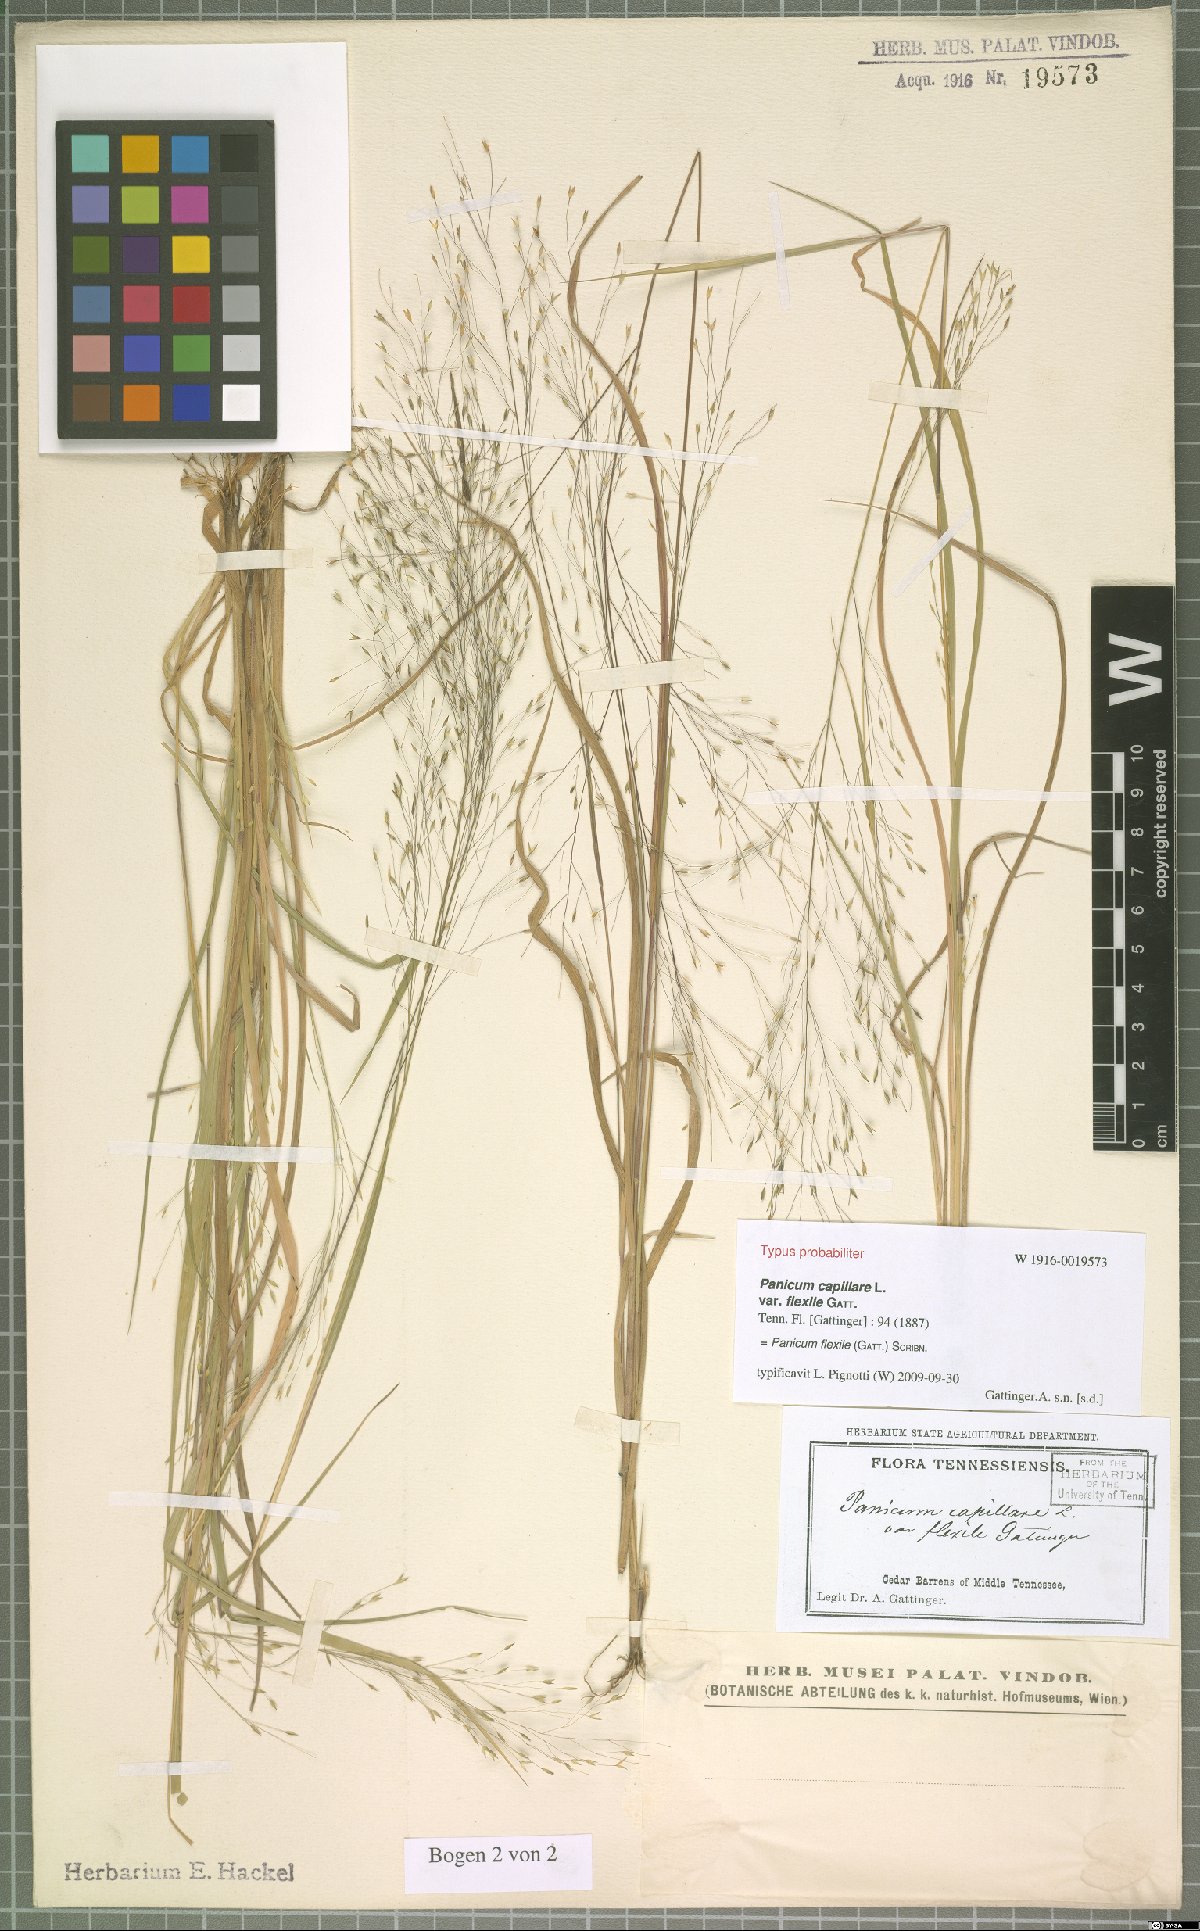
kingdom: Plantae
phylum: Tracheophyta
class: Liliopsida
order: Poales
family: Poaceae
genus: Panicum
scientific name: Panicum flexile
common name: Wiry panicgrass
